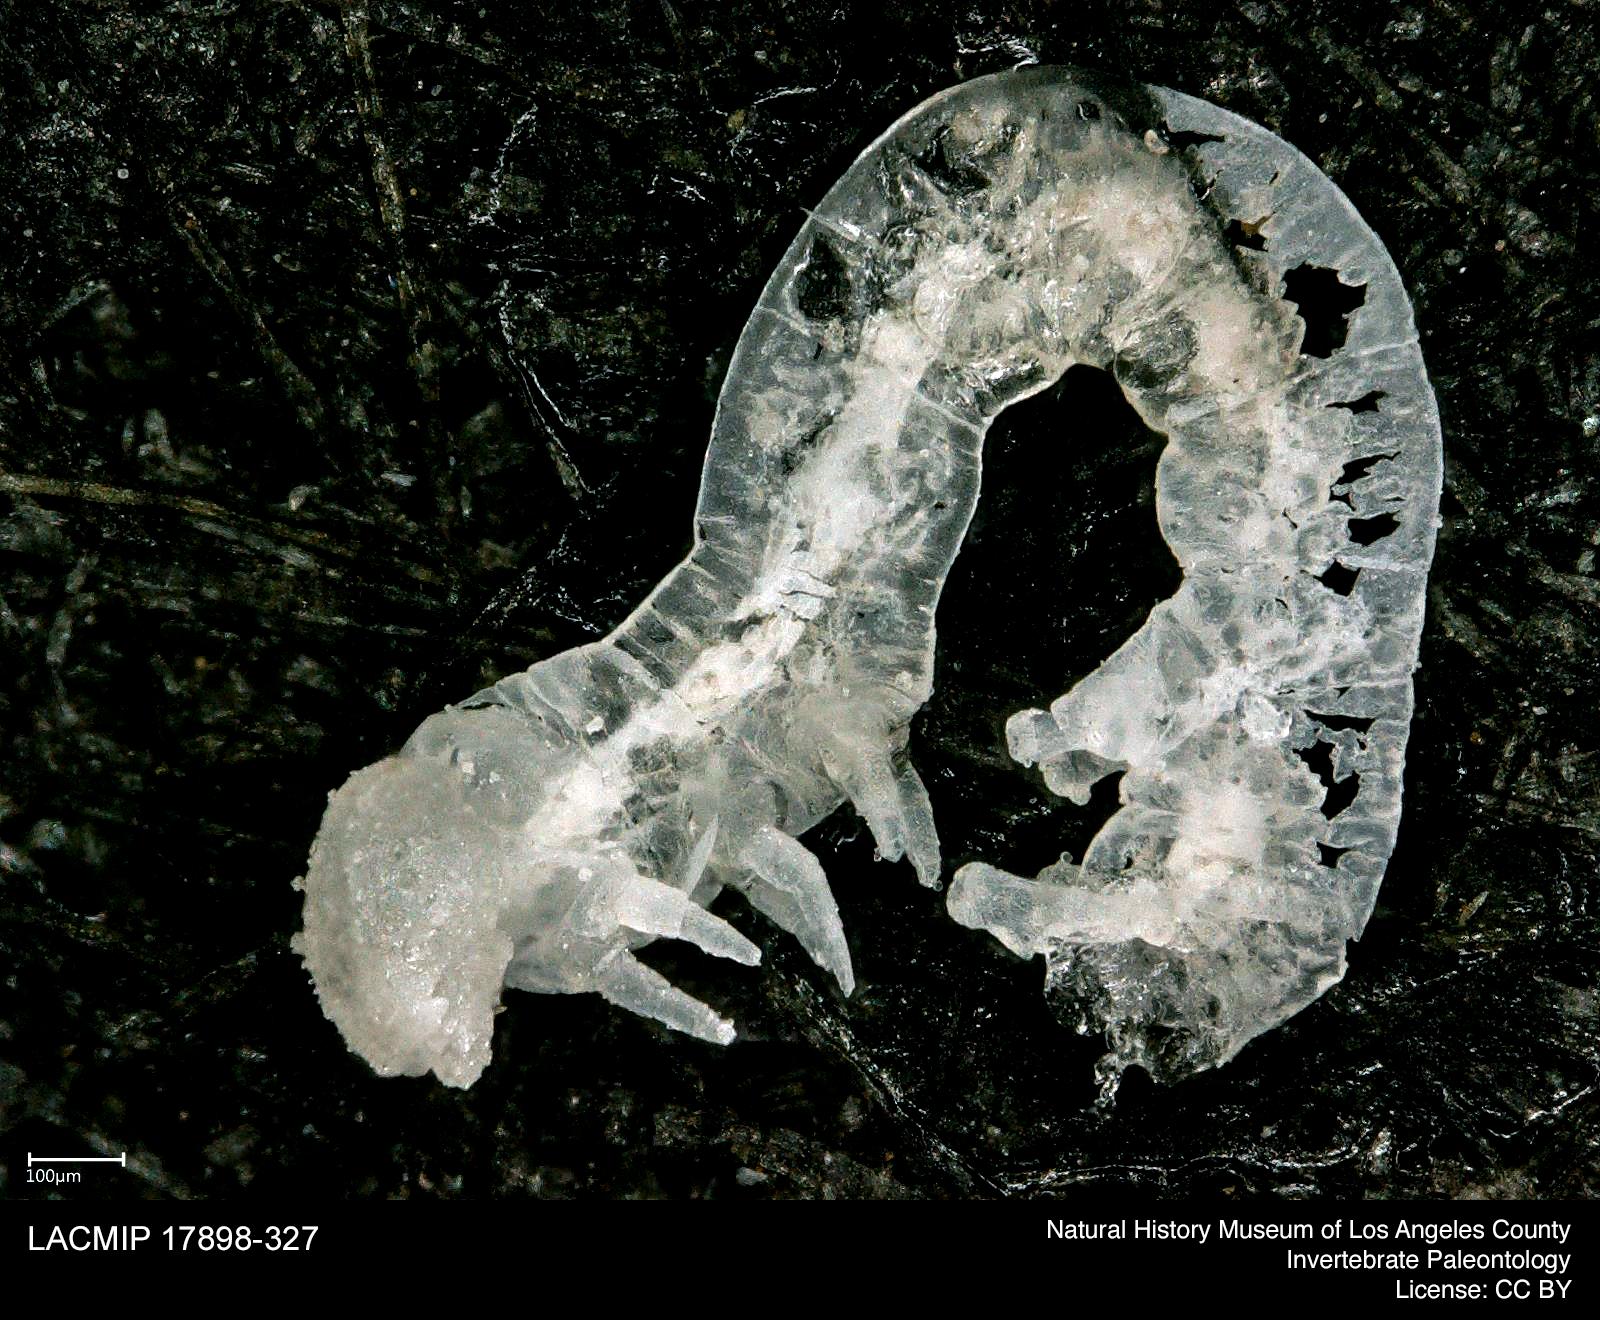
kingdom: Animalia
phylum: Arthropoda
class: Insecta
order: Lepidoptera
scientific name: Lepidoptera
